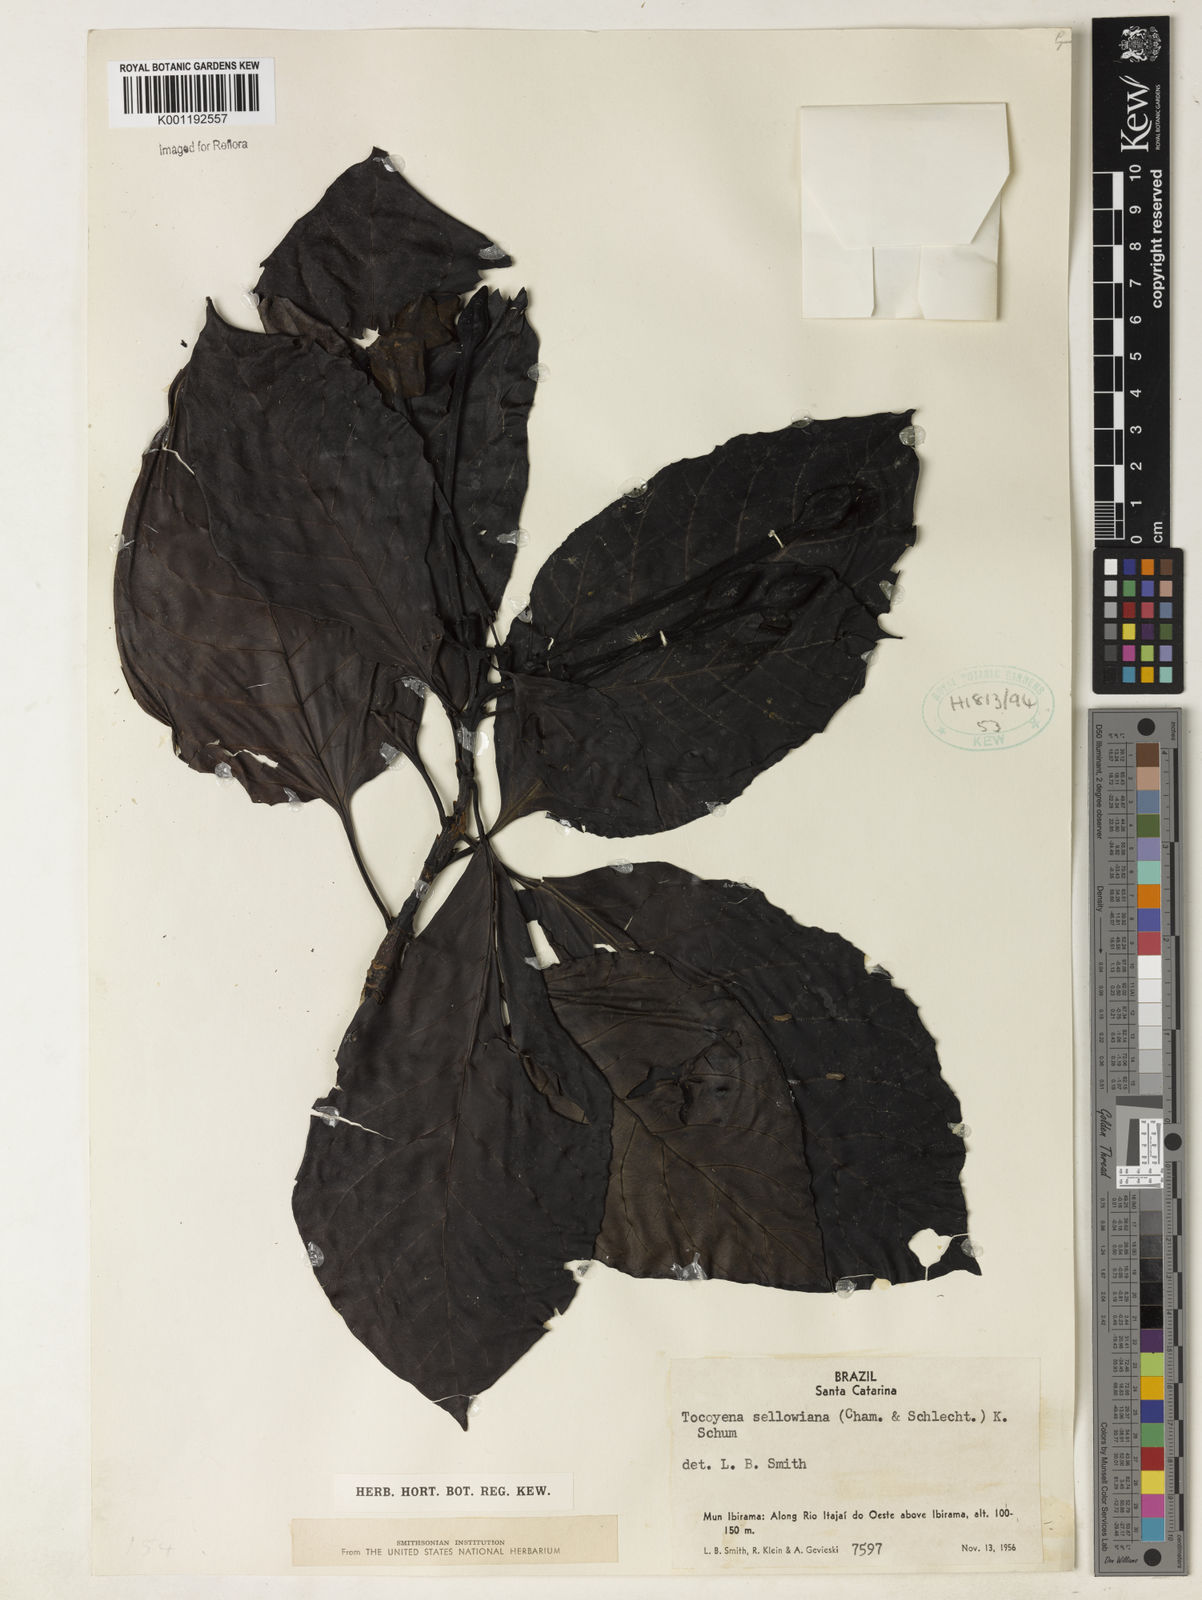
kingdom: Plantae
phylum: Tracheophyta
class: Magnoliopsida
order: Gentianales
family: Rubiaceae
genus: Tocoyena
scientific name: Tocoyena sellowiana
